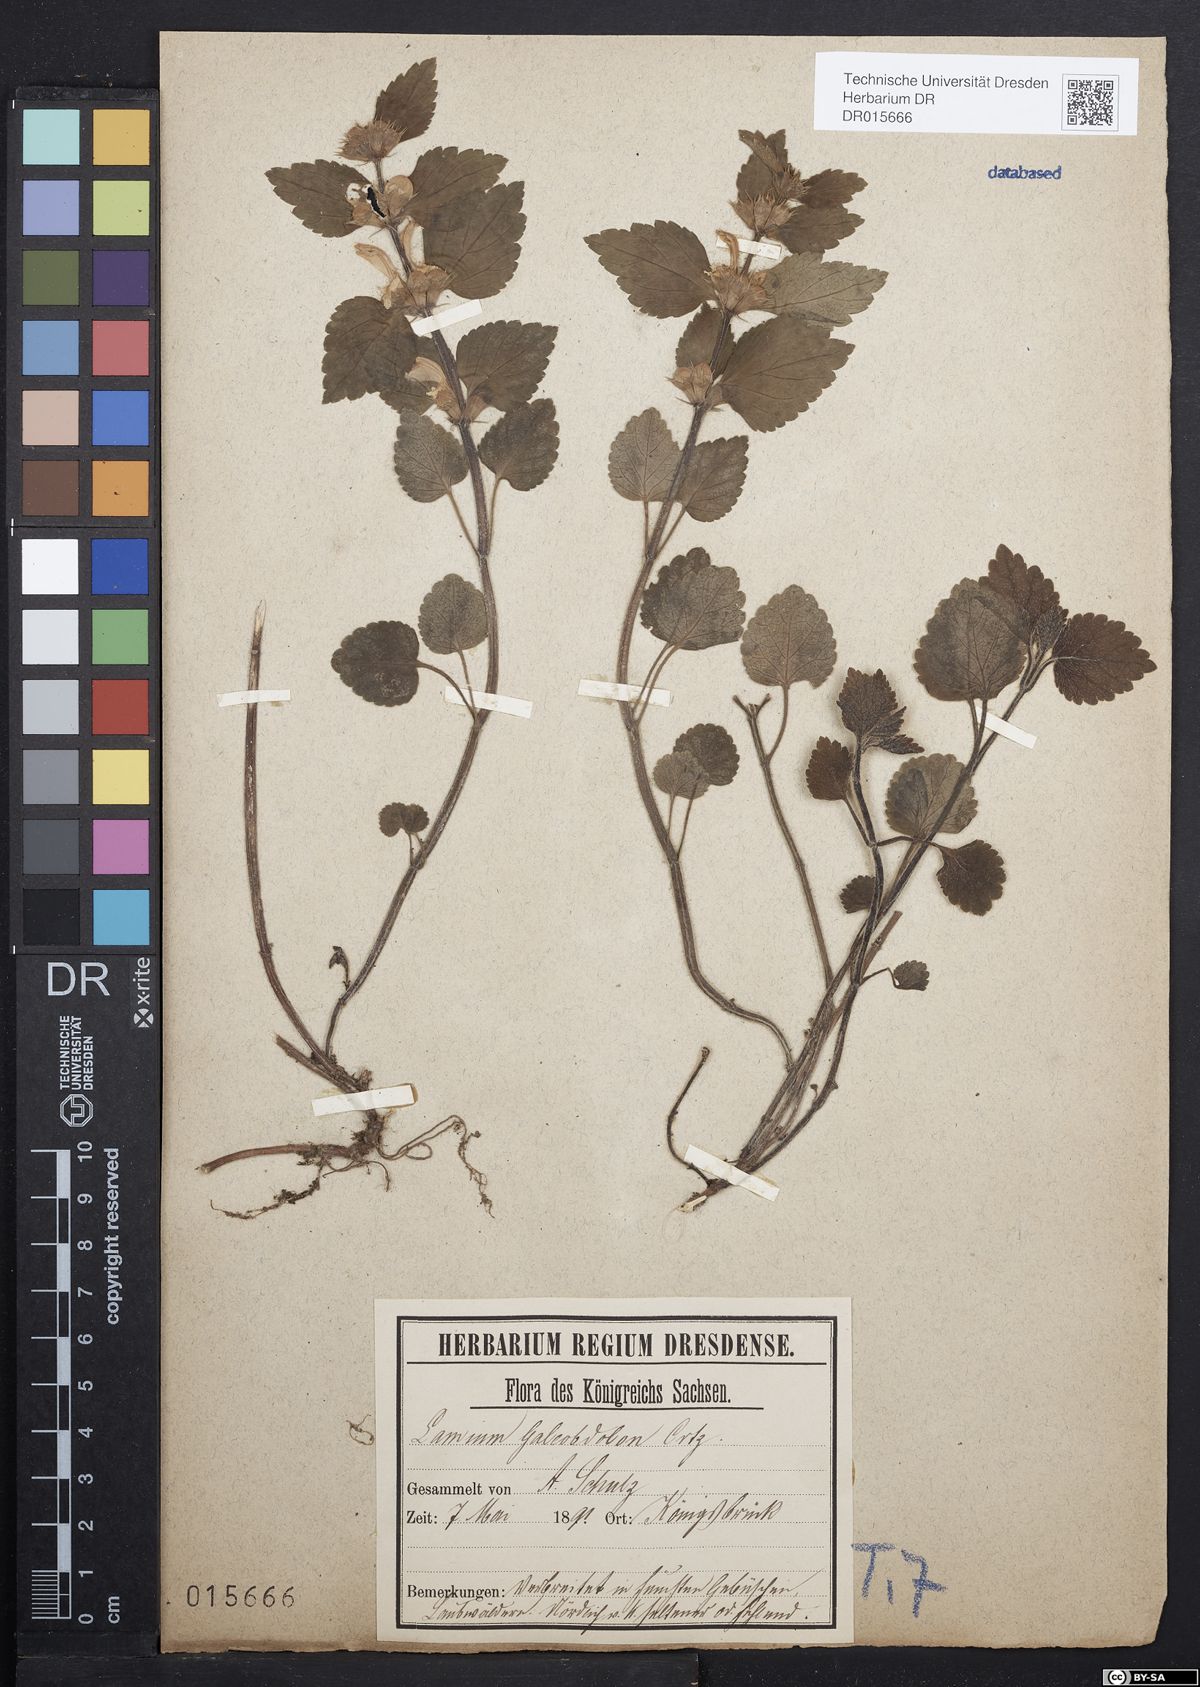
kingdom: Plantae
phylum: Tracheophyta
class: Magnoliopsida
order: Lamiales
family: Lamiaceae
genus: Lamium
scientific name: Lamium galeobdolon
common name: Yellow archangel
